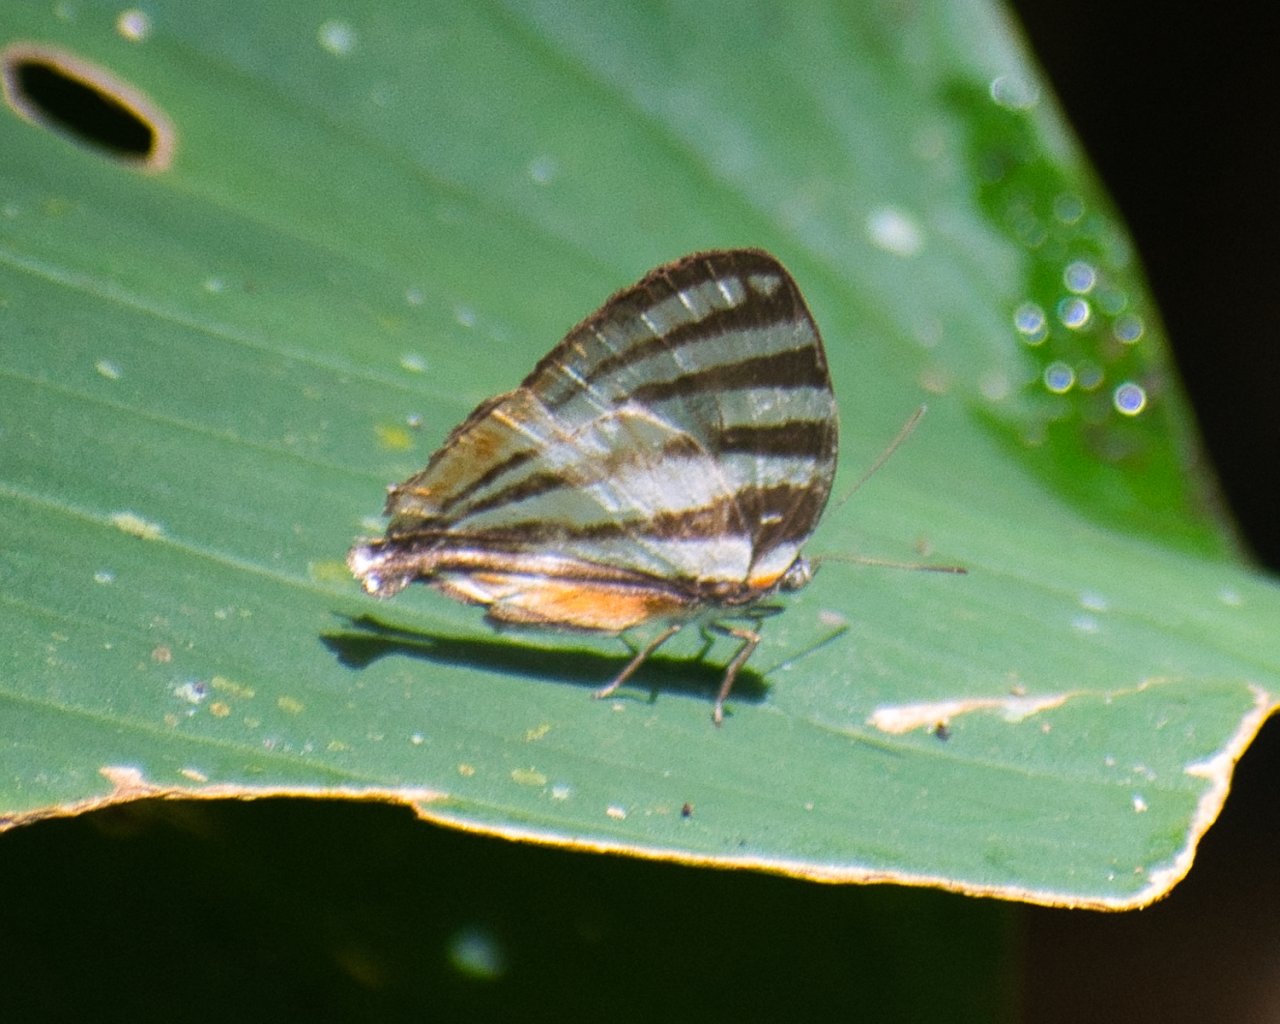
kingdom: Animalia
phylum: Arthropoda
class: Insecta
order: Lepidoptera
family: Lycaenidae
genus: Arawacus
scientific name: Arawacus togarna
